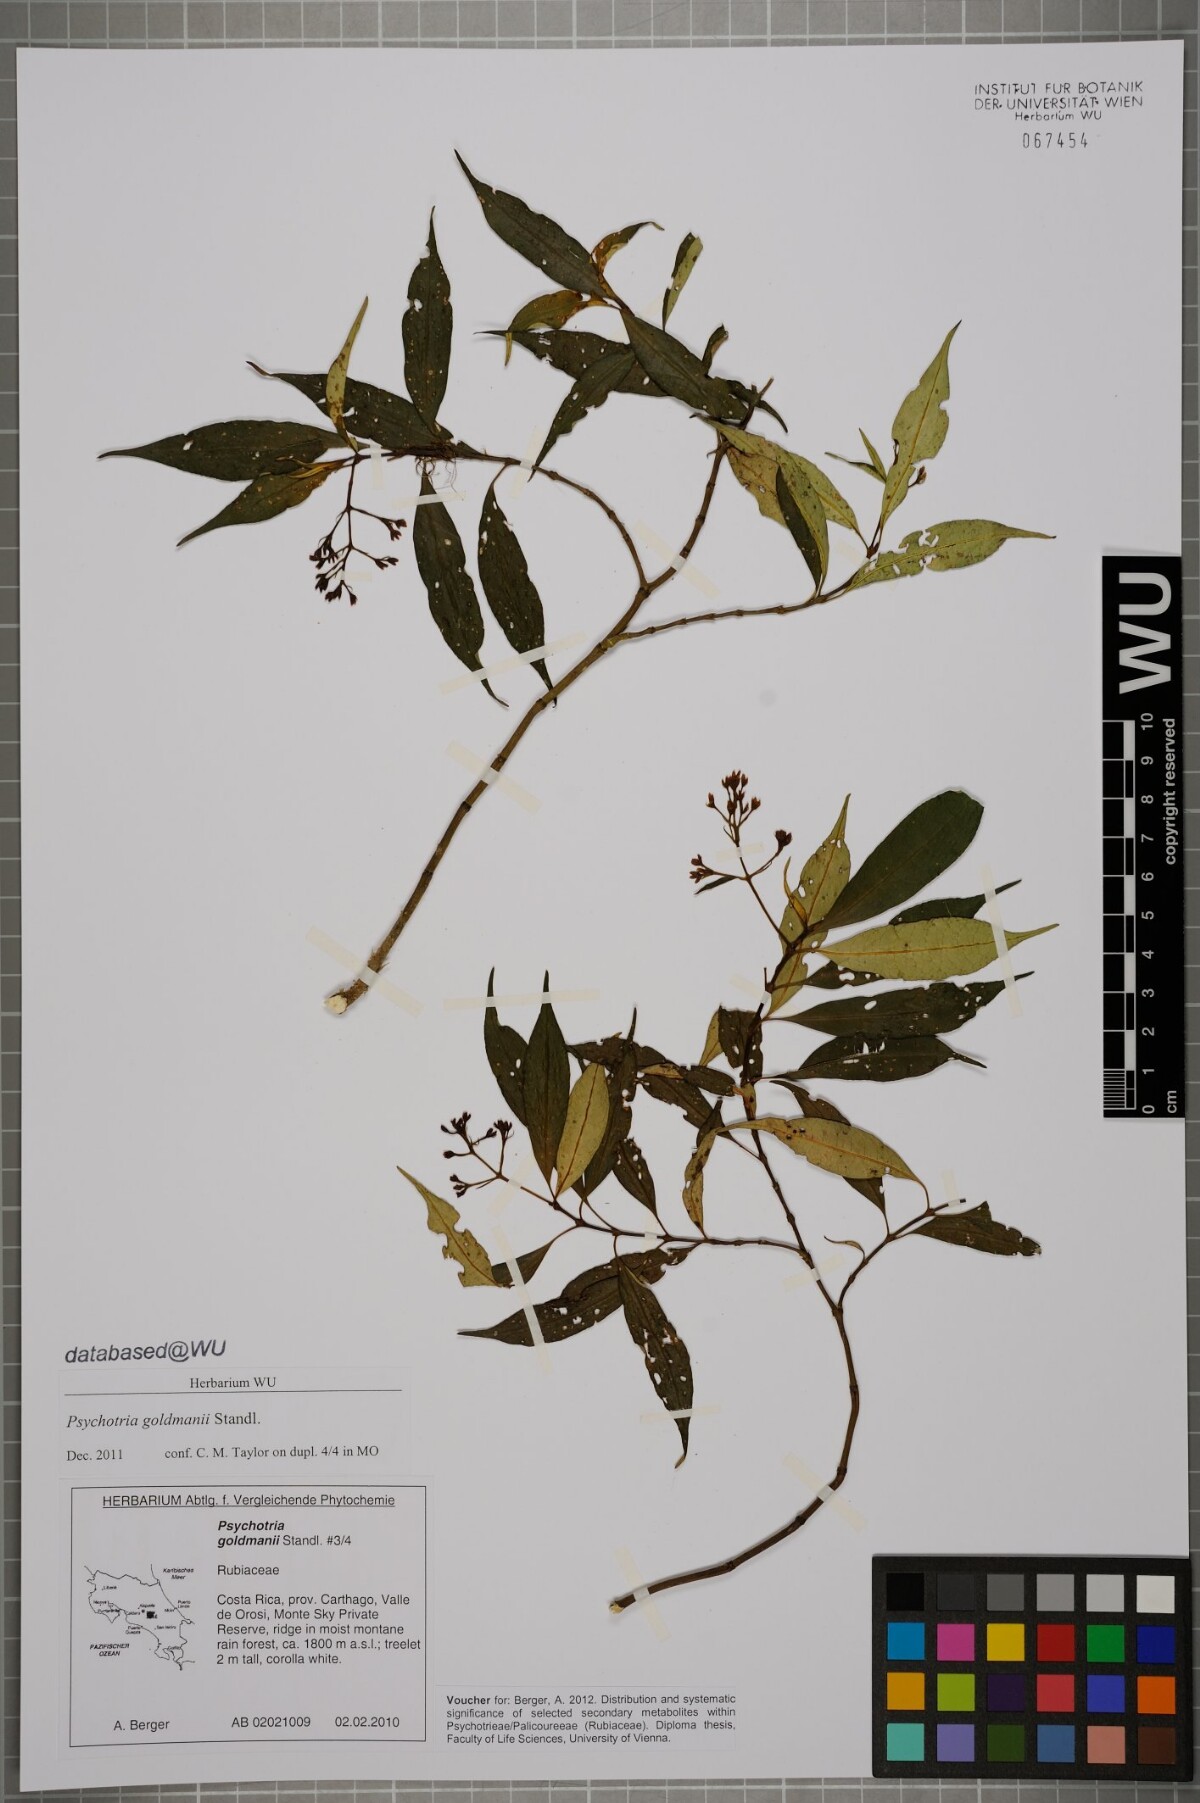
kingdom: Plantae
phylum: Tracheophyta
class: Magnoliopsida
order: Gentianales
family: Rubiaceae
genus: Palicourea
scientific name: Palicourea goldmanii
